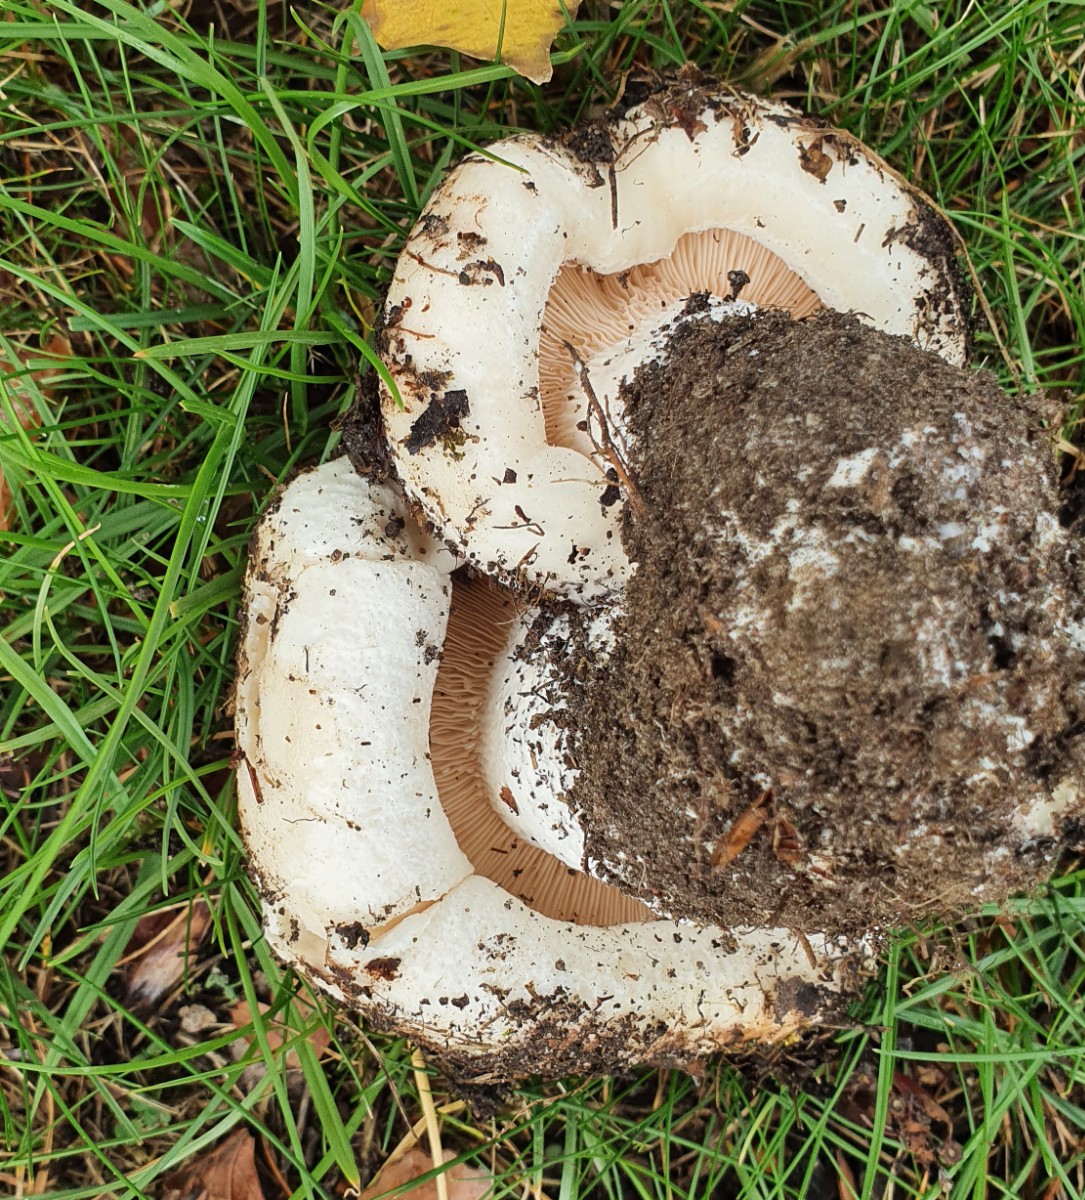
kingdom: Fungi
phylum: Basidiomycota
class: Agaricomycetes
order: Russulales
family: Russulaceae
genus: Lactarius
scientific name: Lactarius controversus
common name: rosabladet mælkehat
